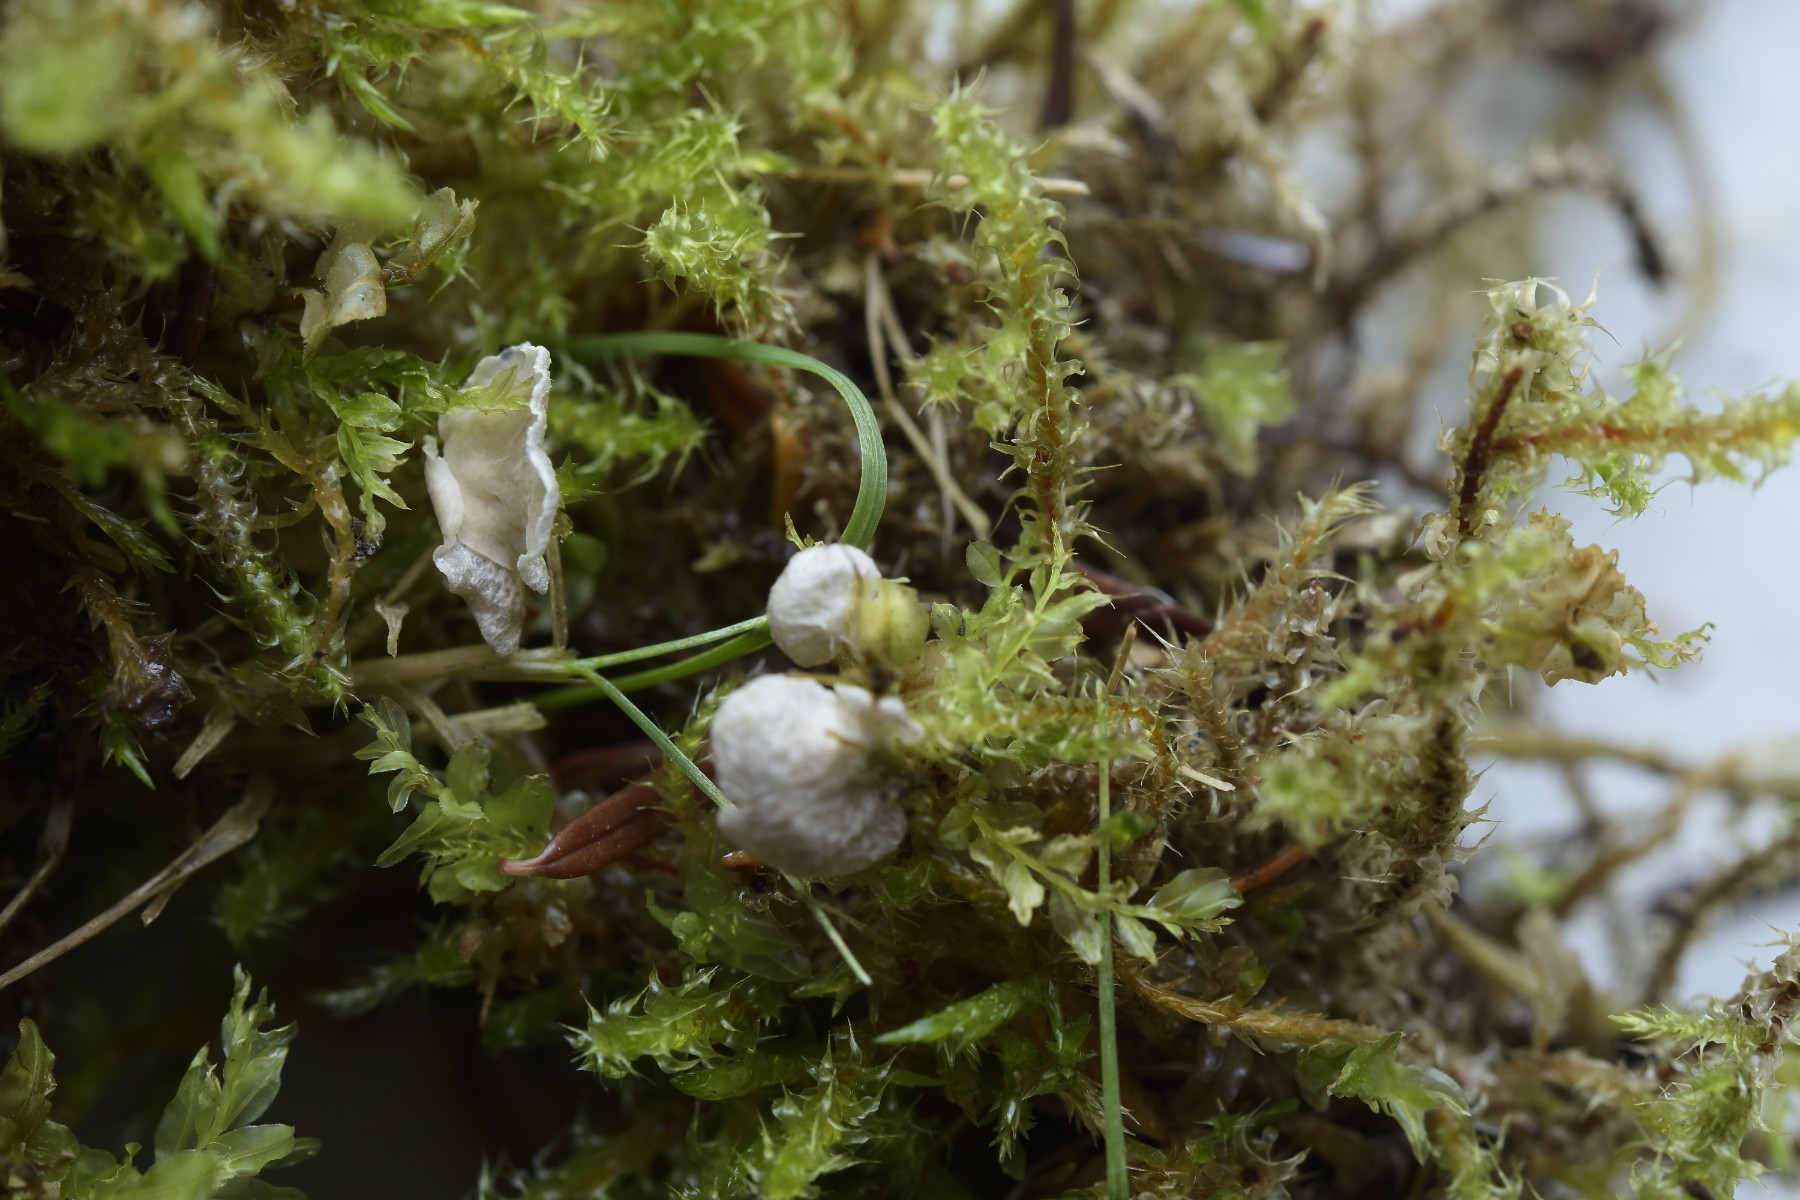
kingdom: Fungi
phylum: Basidiomycota
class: Agaricomycetes
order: Agaricales
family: Hygrophoraceae
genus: Arrhenia
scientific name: Arrhenia retiruga
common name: lille fontænehat
